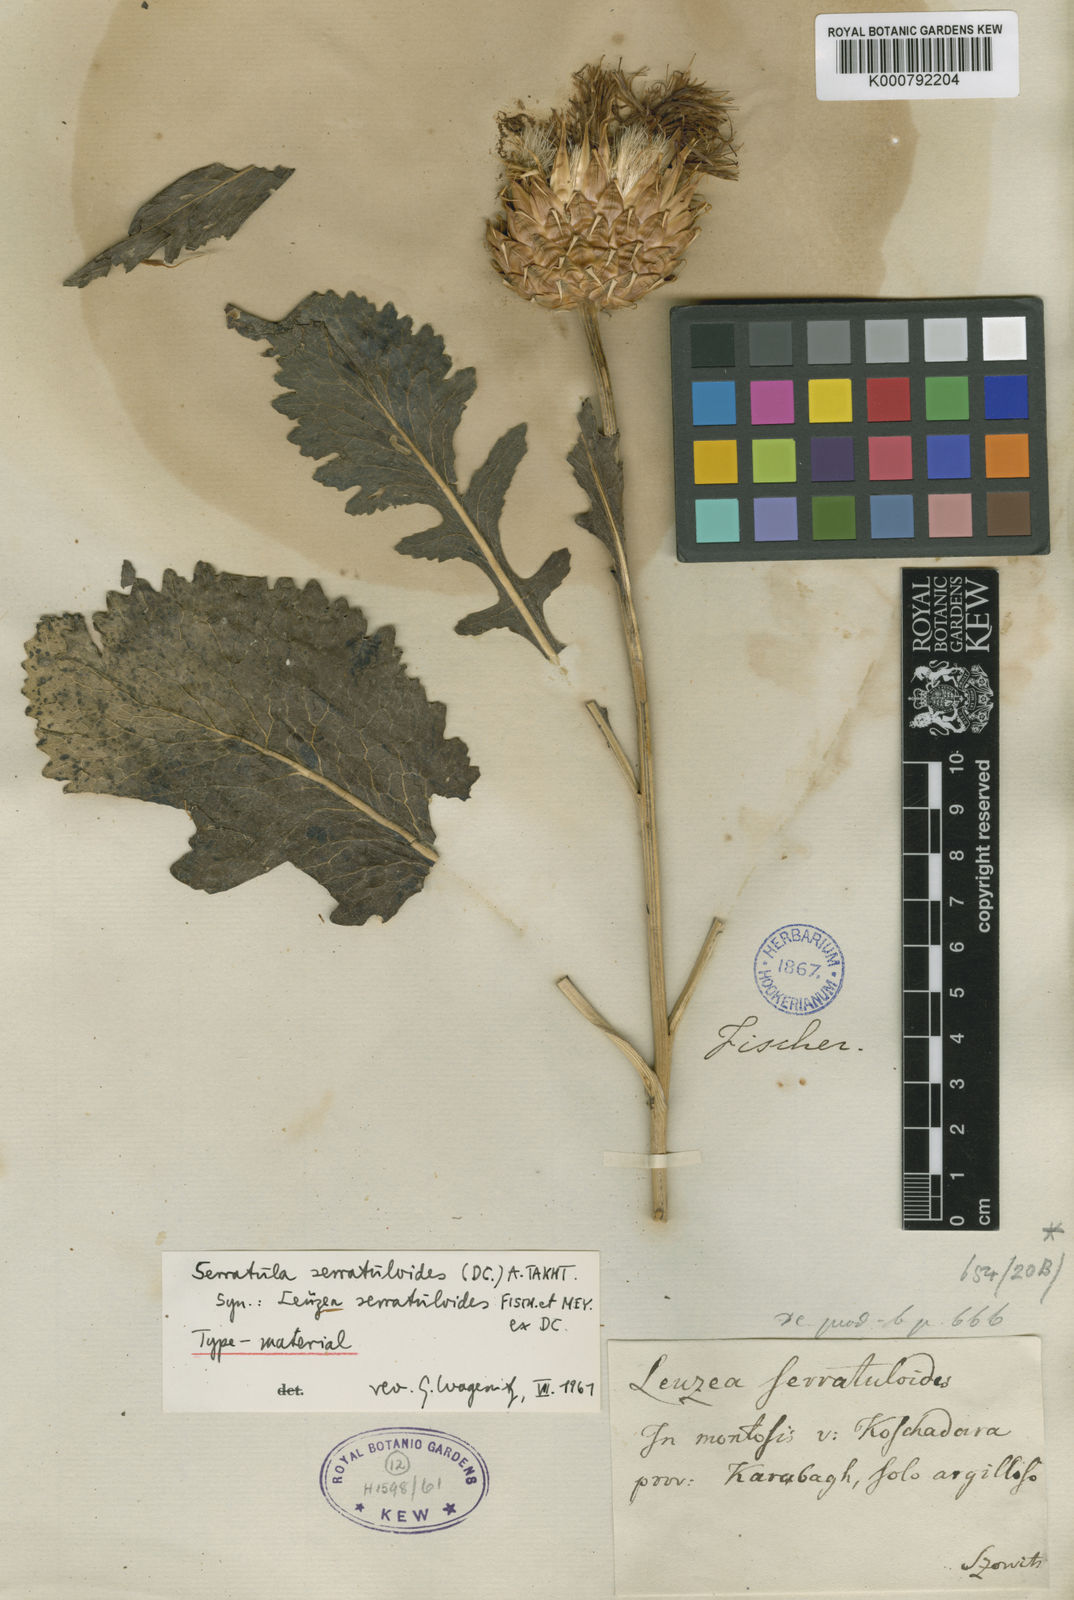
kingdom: Plantae
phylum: Tracheophyta
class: Magnoliopsida
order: Asterales
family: Asteraceae
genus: Klasea
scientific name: Klasea serratuloides
